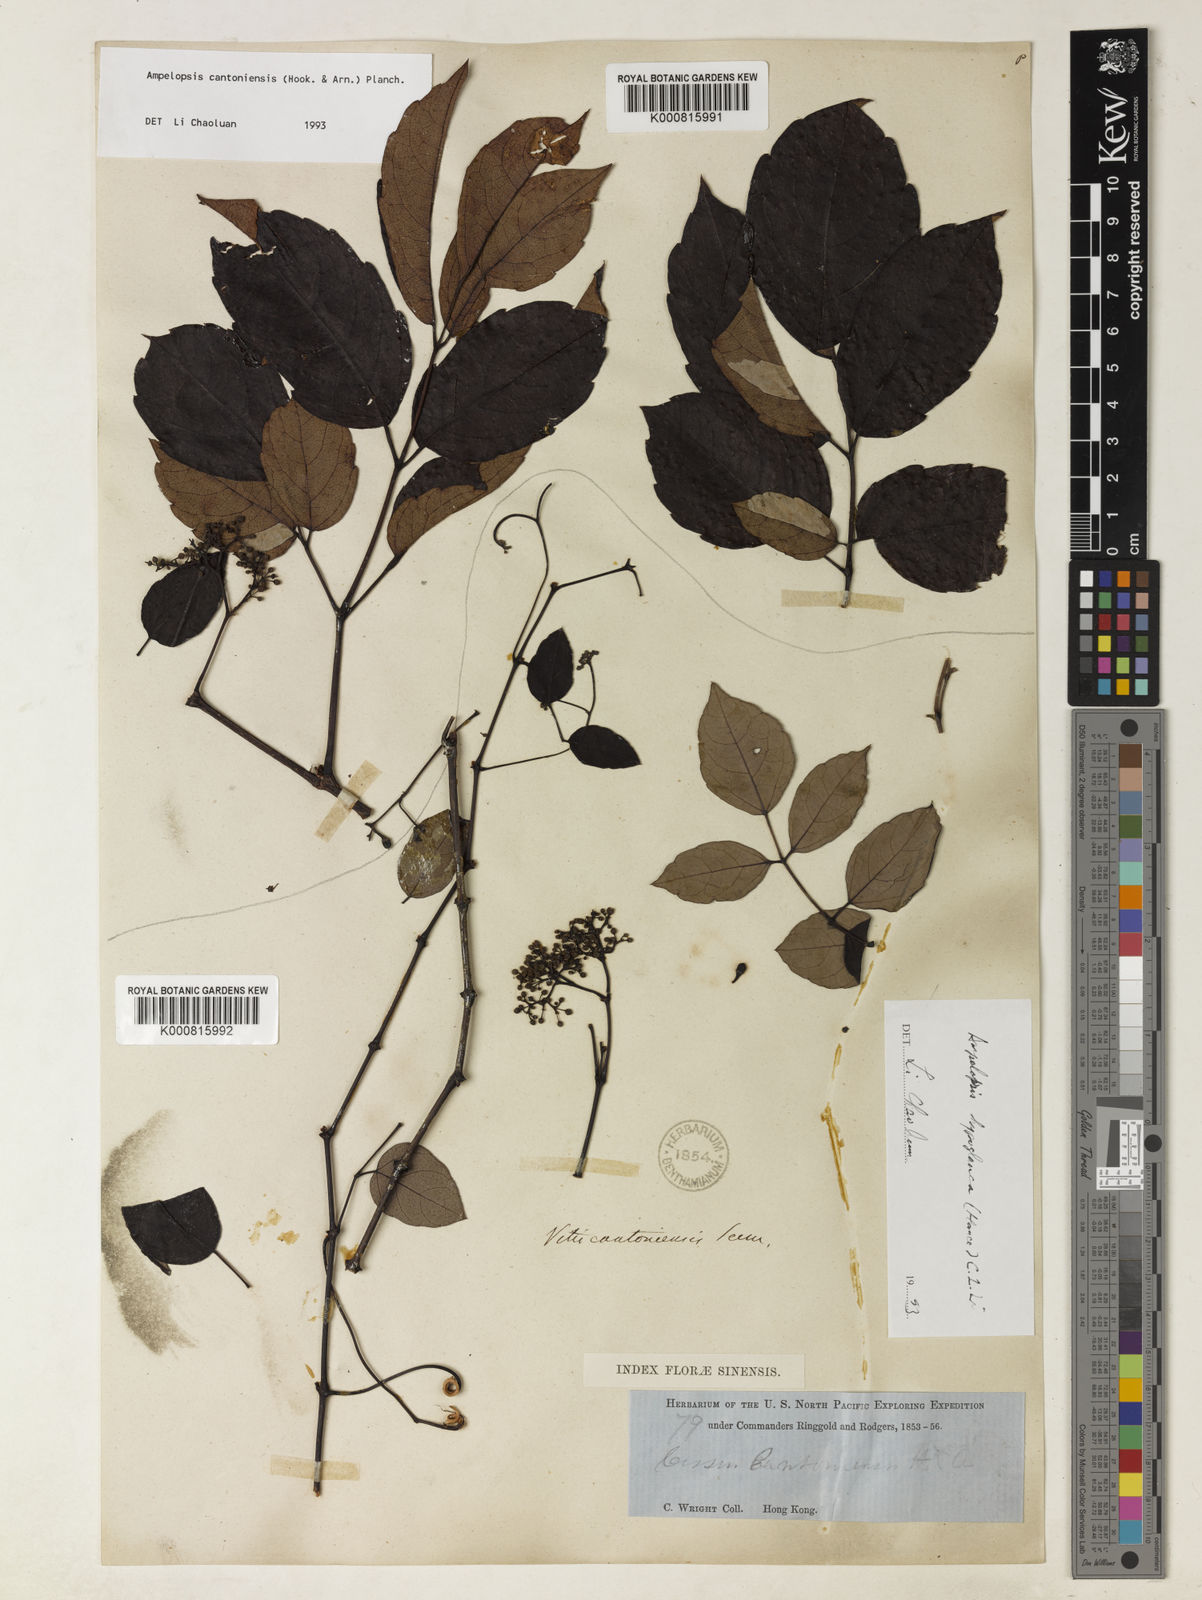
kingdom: Plantae
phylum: Tracheophyta
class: Magnoliopsida
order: Vitales
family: Vitaceae
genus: Ampelopsis
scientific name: Ampelopsis
